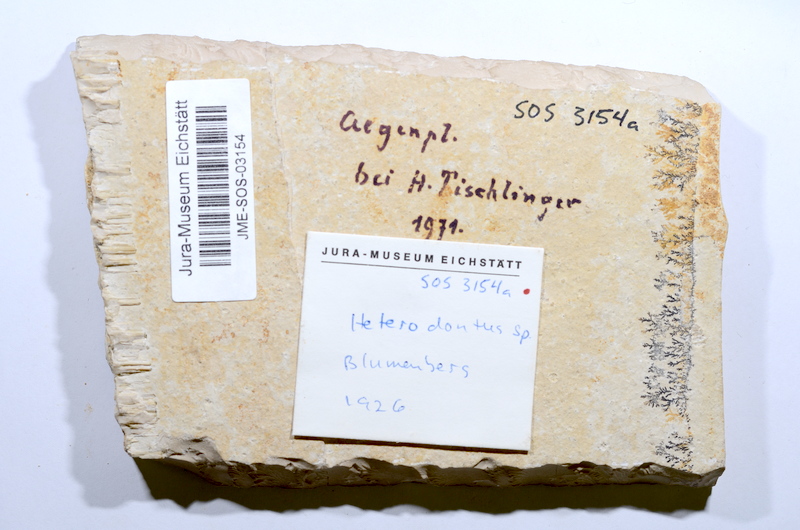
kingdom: Animalia
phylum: Chordata
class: Elasmobranchii
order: Carcharhiniformes
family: Scyliorhinidae
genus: Palaeoscyllium
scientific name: Palaeoscyllium formosum
